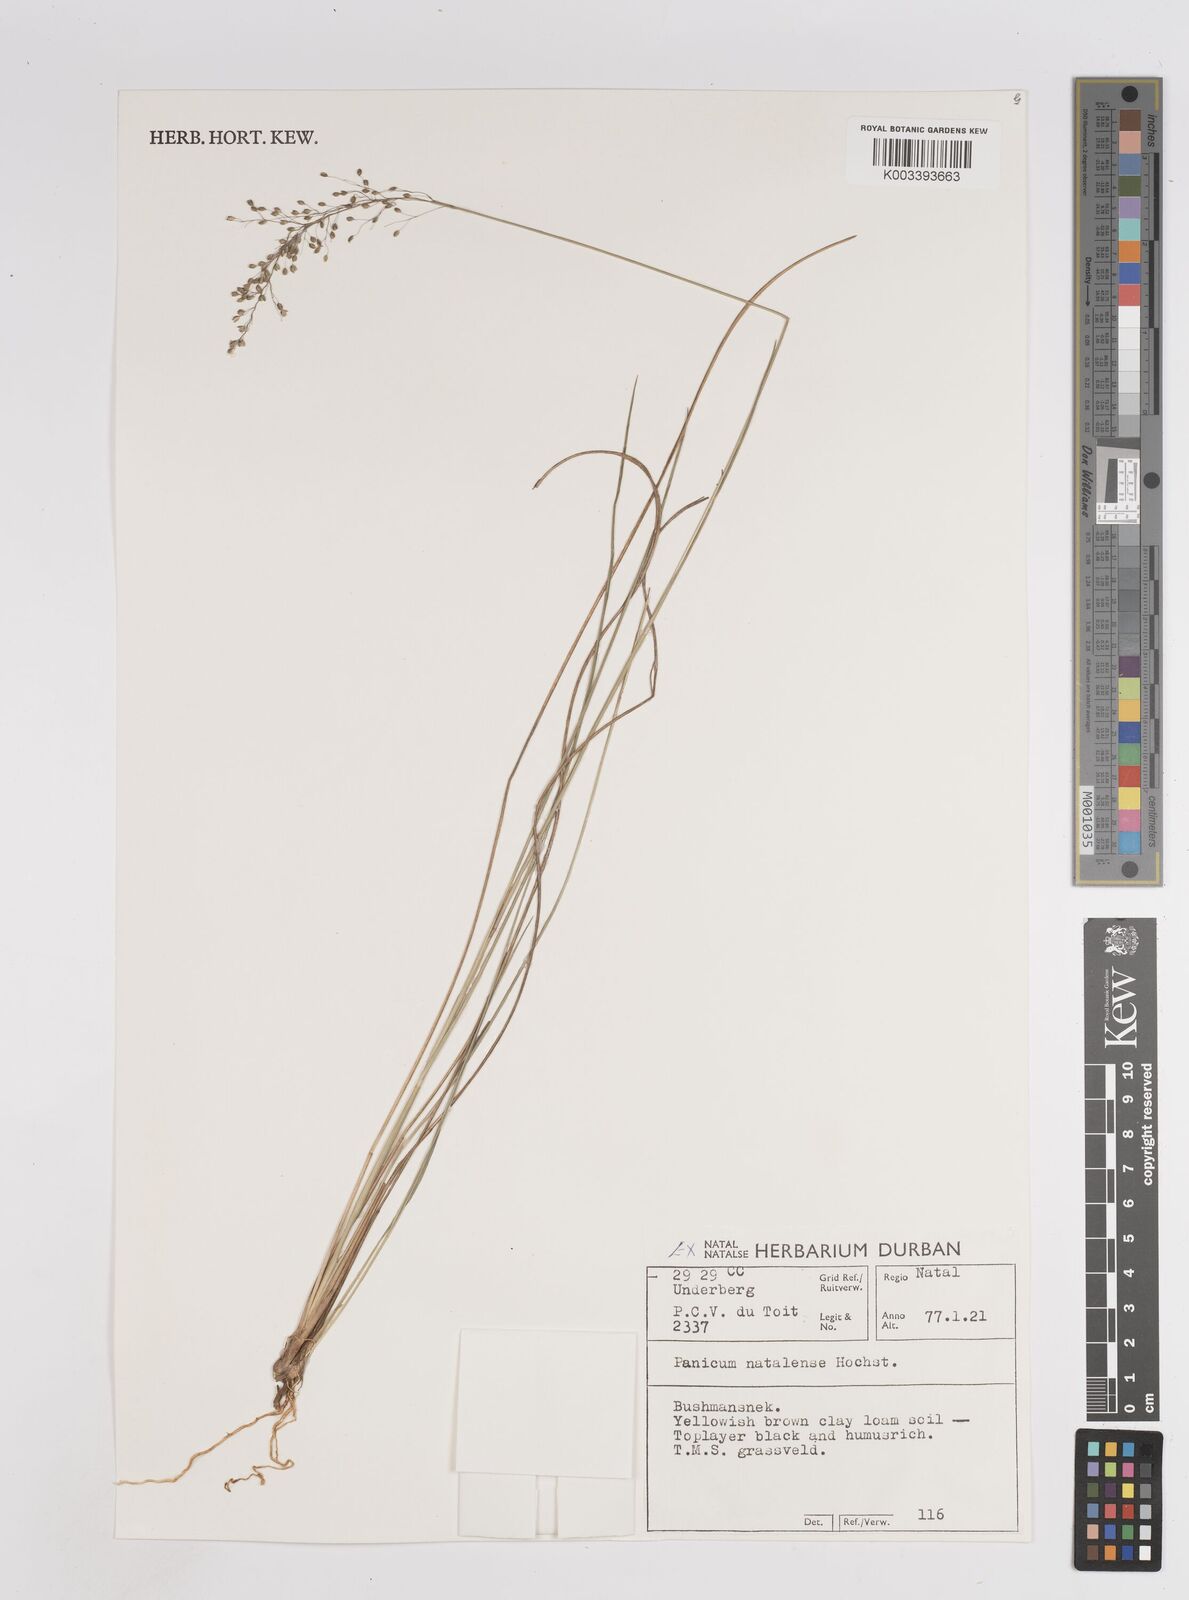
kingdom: Plantae
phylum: Tracheophyta
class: Liliopsida
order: Poales
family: Poaceae
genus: Trichanthecium
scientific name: Trichanthecium natalense
